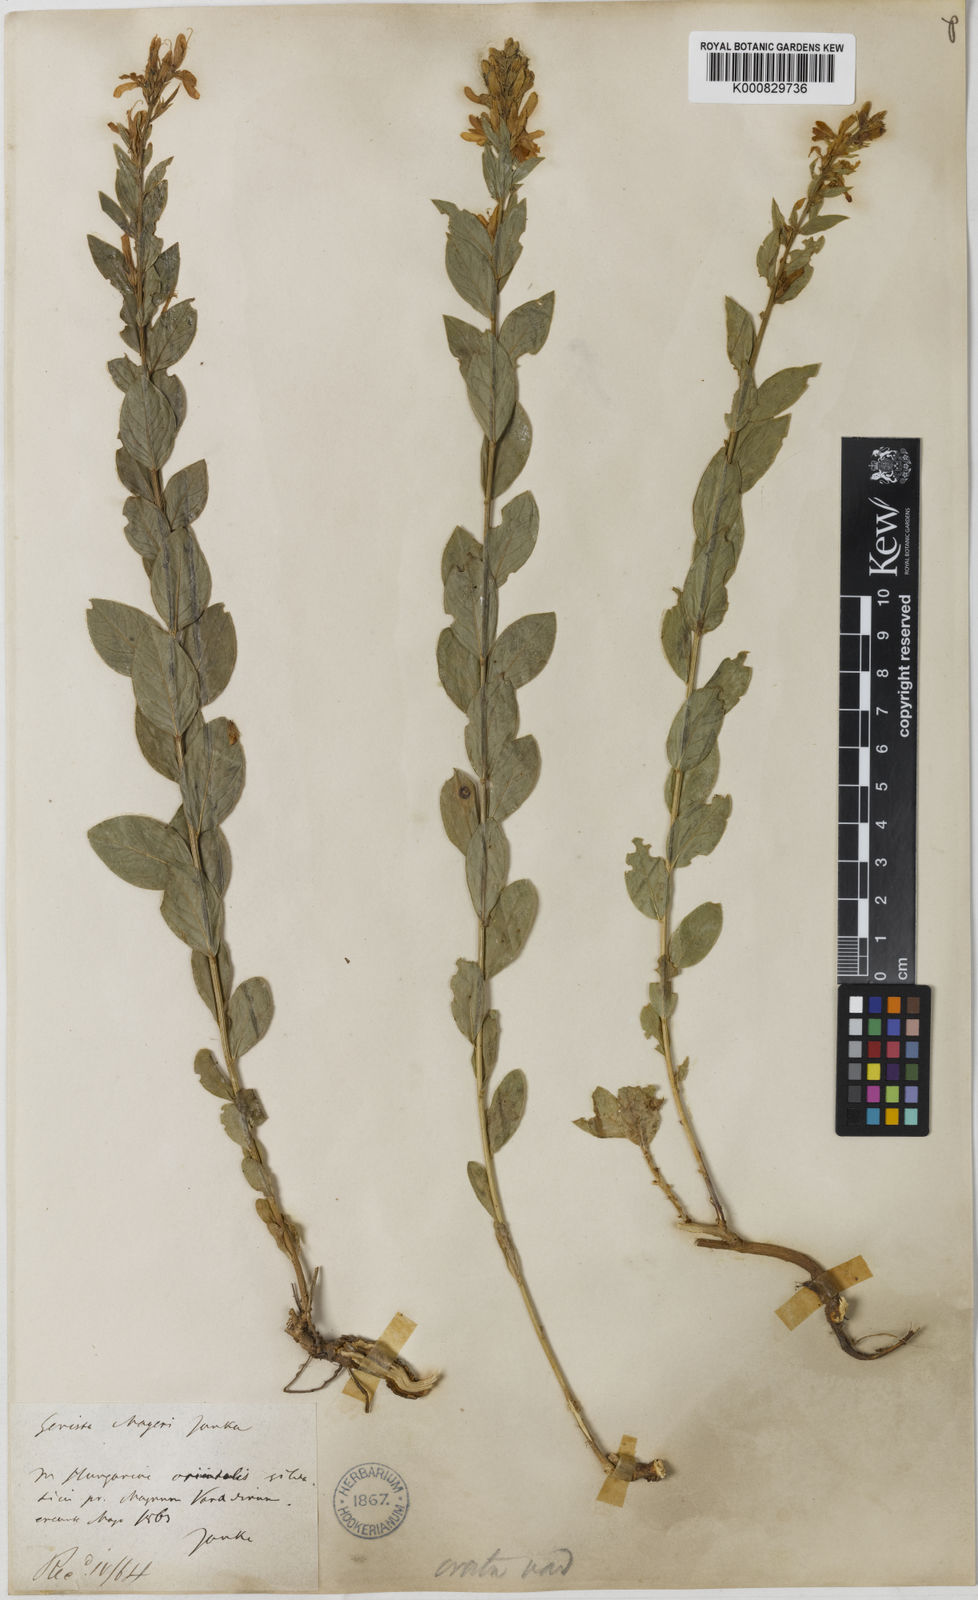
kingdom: Plantae
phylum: Tracheophyta
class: Magnoliopsida
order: Fabales
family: Fabaceae
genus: Genista
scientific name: Genista tinctoria
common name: Dyer's greenweed
